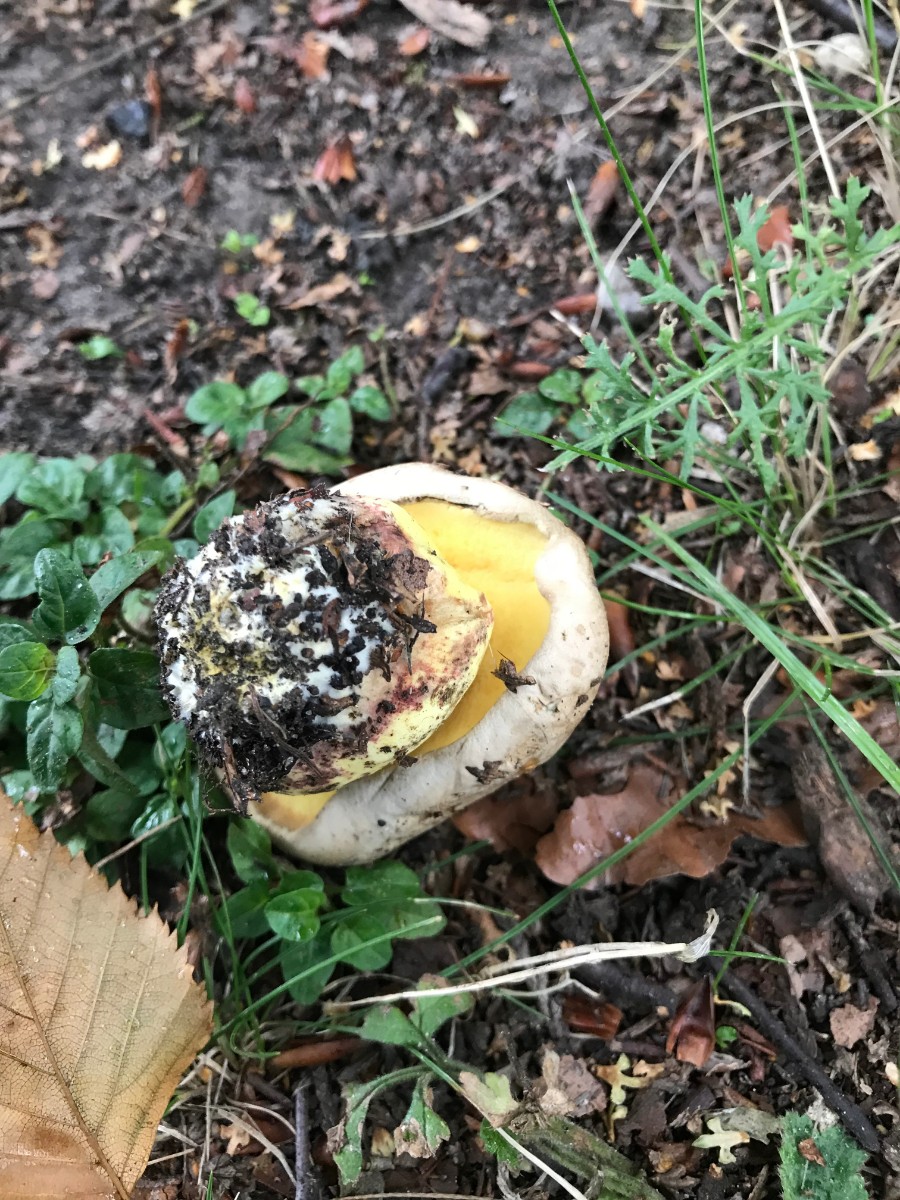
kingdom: Fungi
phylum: Basidiomycota
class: Agaricomycetes
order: Boletales
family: Boletaceae
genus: Caloboletus
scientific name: Caloboletus radicans
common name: rod-rørhat
